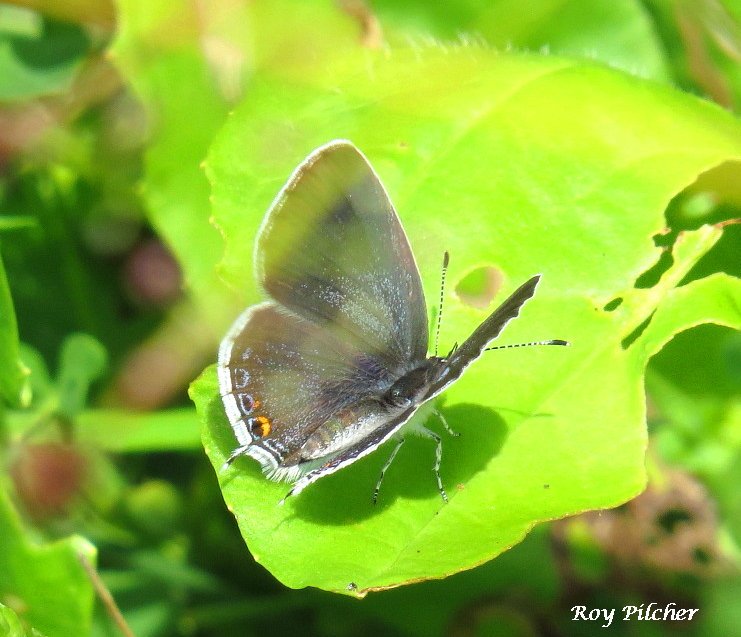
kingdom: Animalia
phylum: Arthropoda
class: Insecta
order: Lepidoptera
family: Lycaenidae
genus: Elkalyce
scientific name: Elkalyce comyntas
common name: Eastern Tailed-Blue
